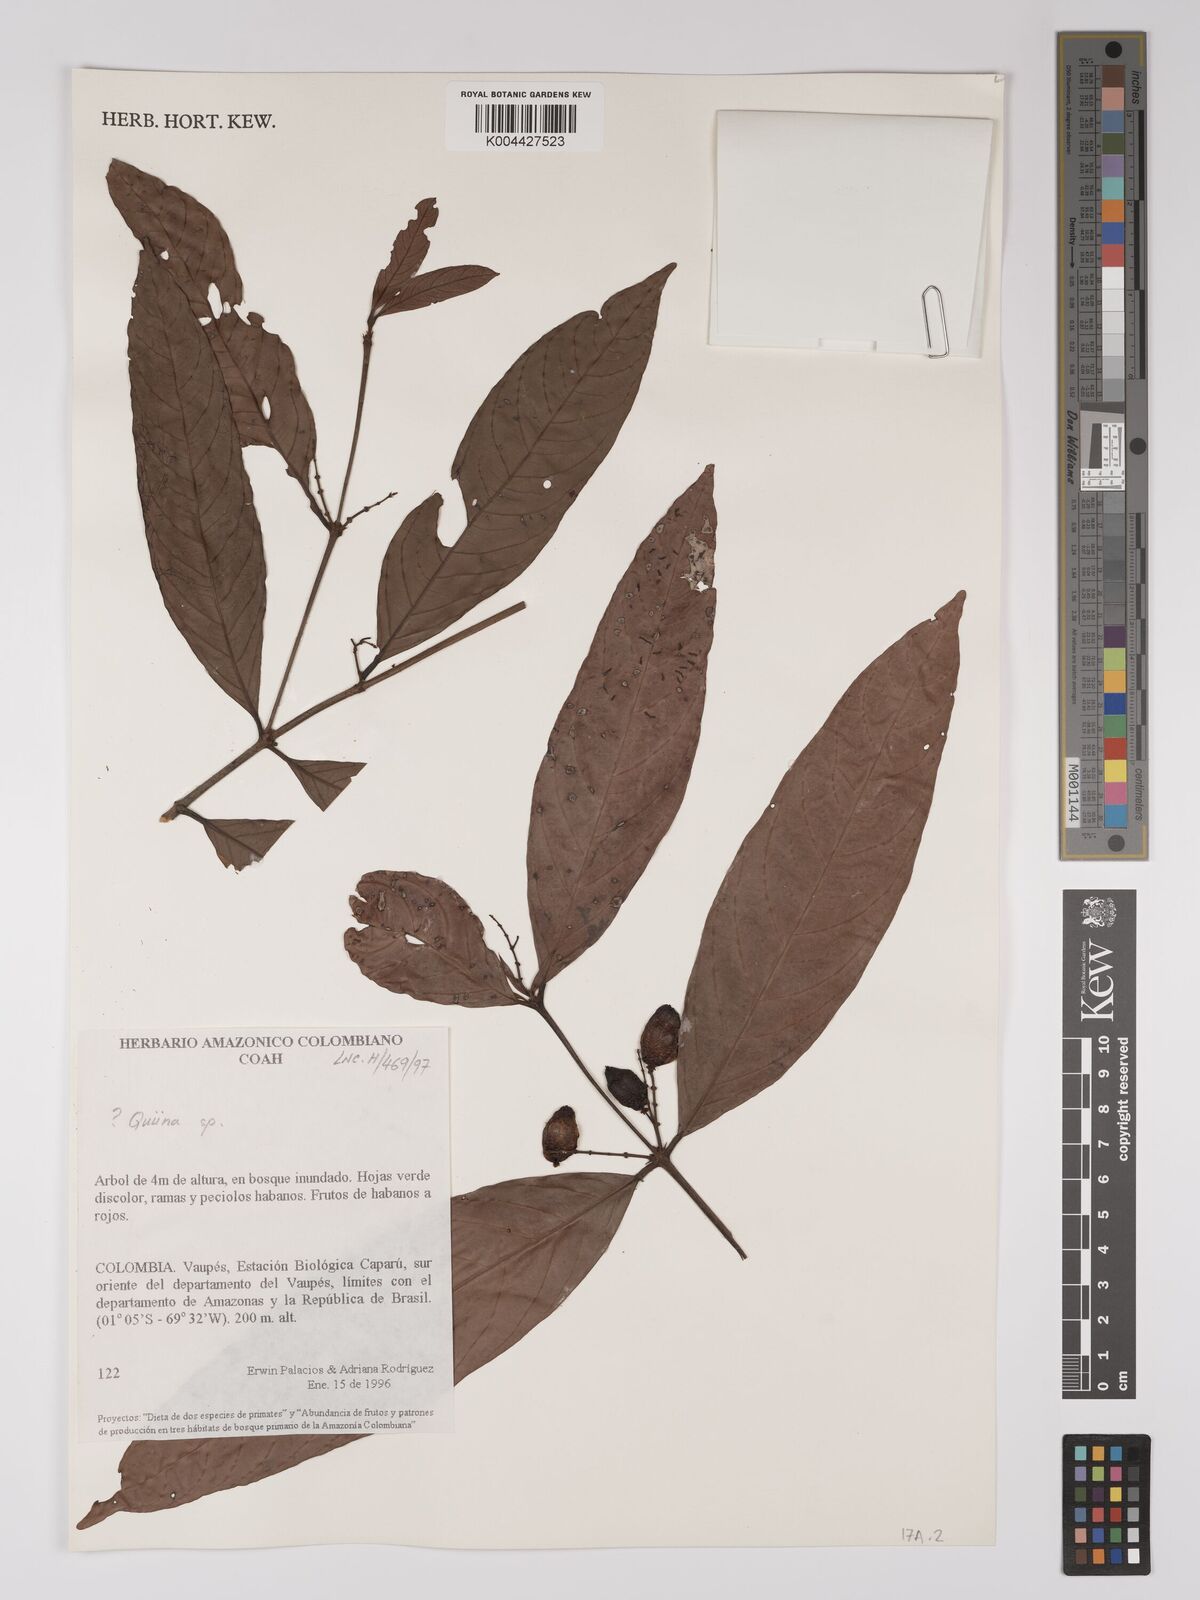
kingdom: Plantae
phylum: Tracheophyta
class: Magnoliopsida
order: Malpighiales
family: Ochnaceae
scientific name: Ochnaceae
